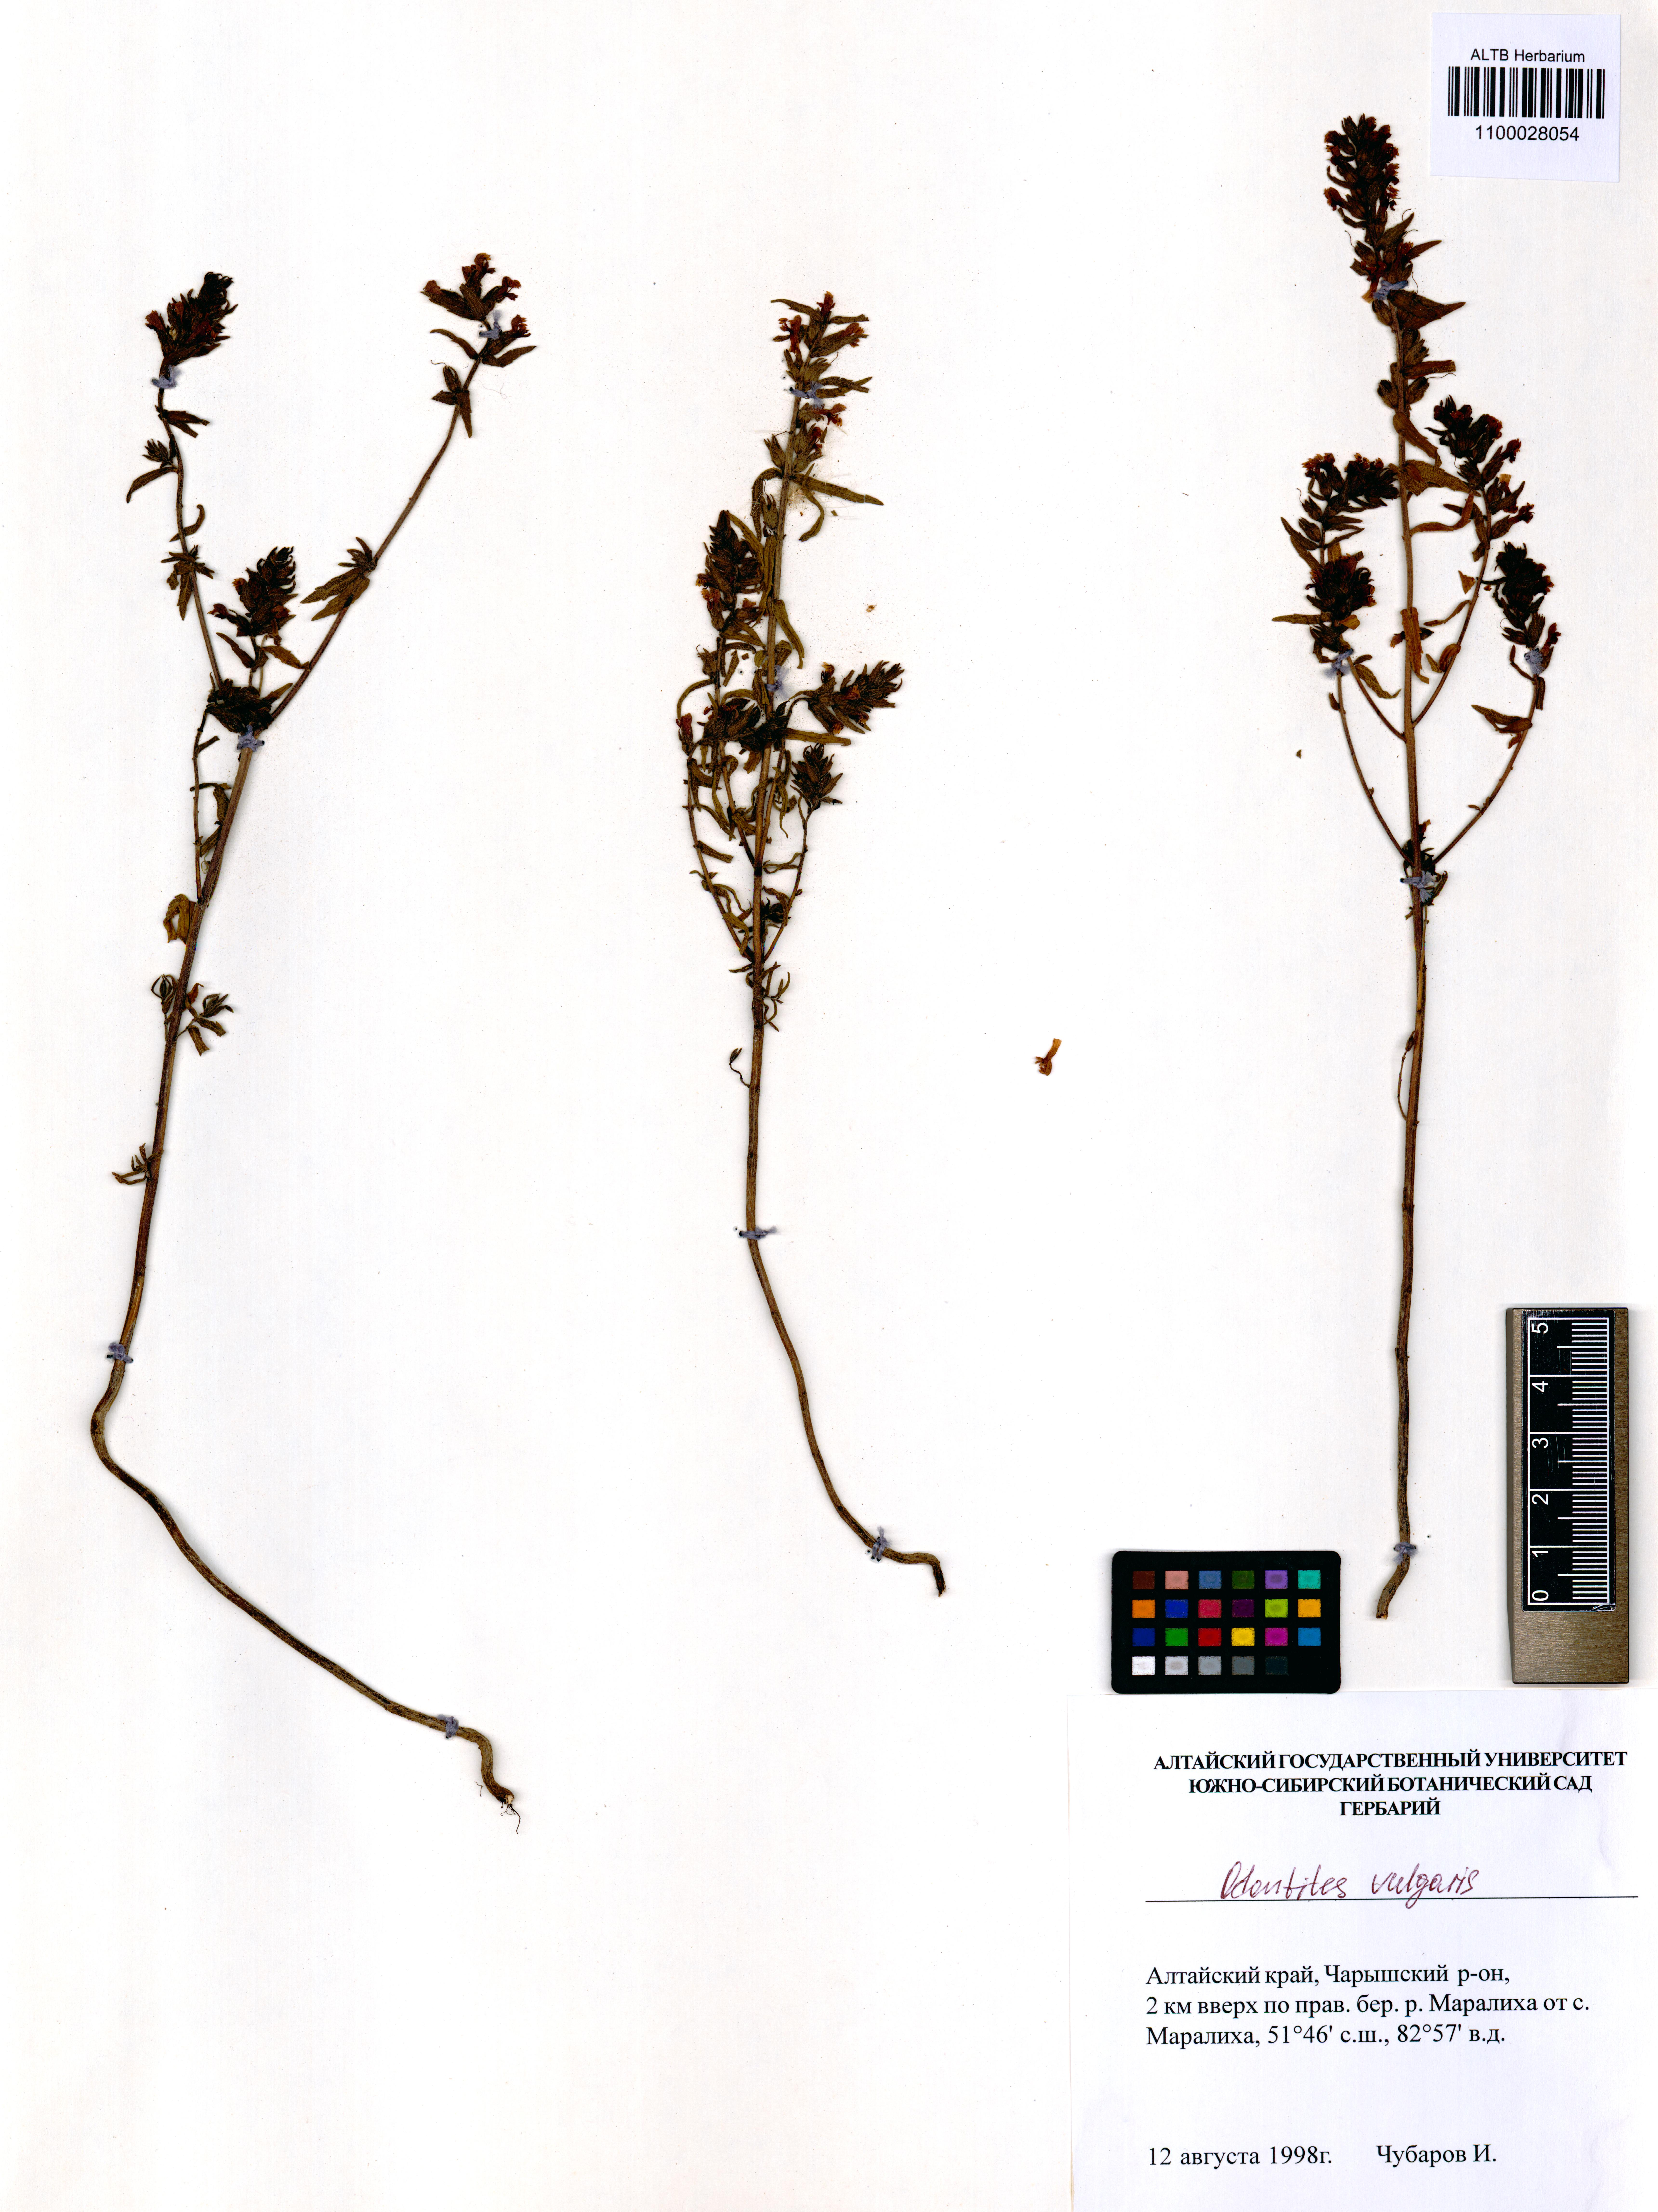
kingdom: Plantae
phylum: Tracheophyta
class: Magnoliopsida
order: Lamiales
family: Orobanchaceae
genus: Odontites
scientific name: Odontites vulgaris
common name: Broomrape
